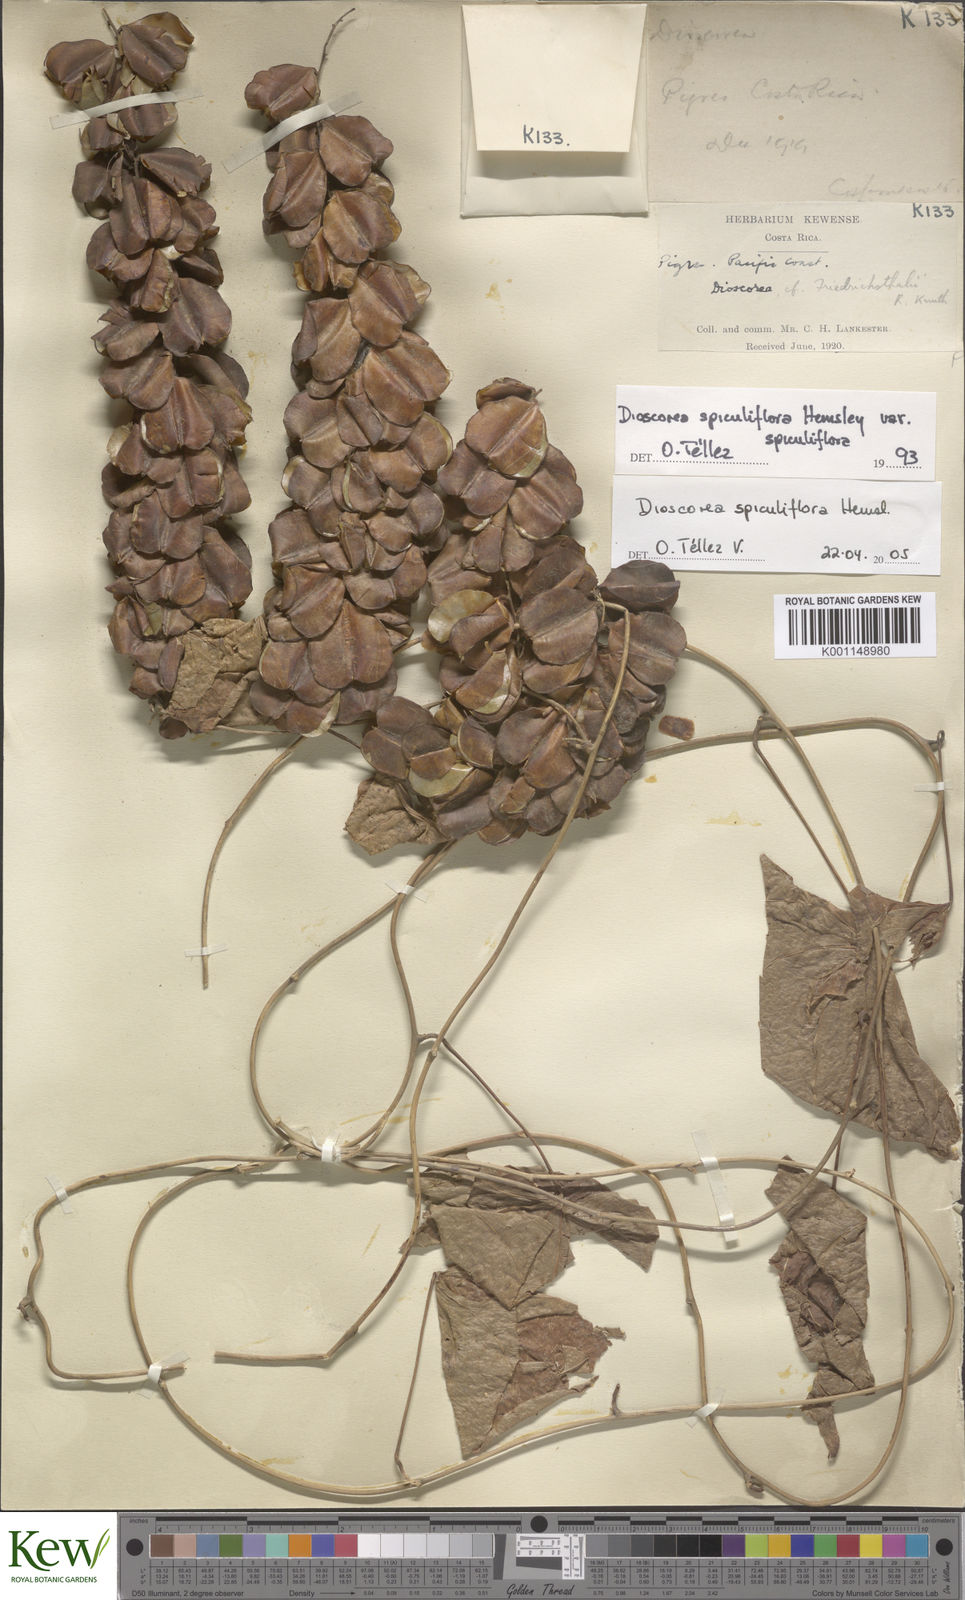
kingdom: Plantae
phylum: Tracheophyta
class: Liliopsida
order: Dioscoreales
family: Dioscoreaceae
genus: Dioscorea
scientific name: Dioscorea spiculiflora
